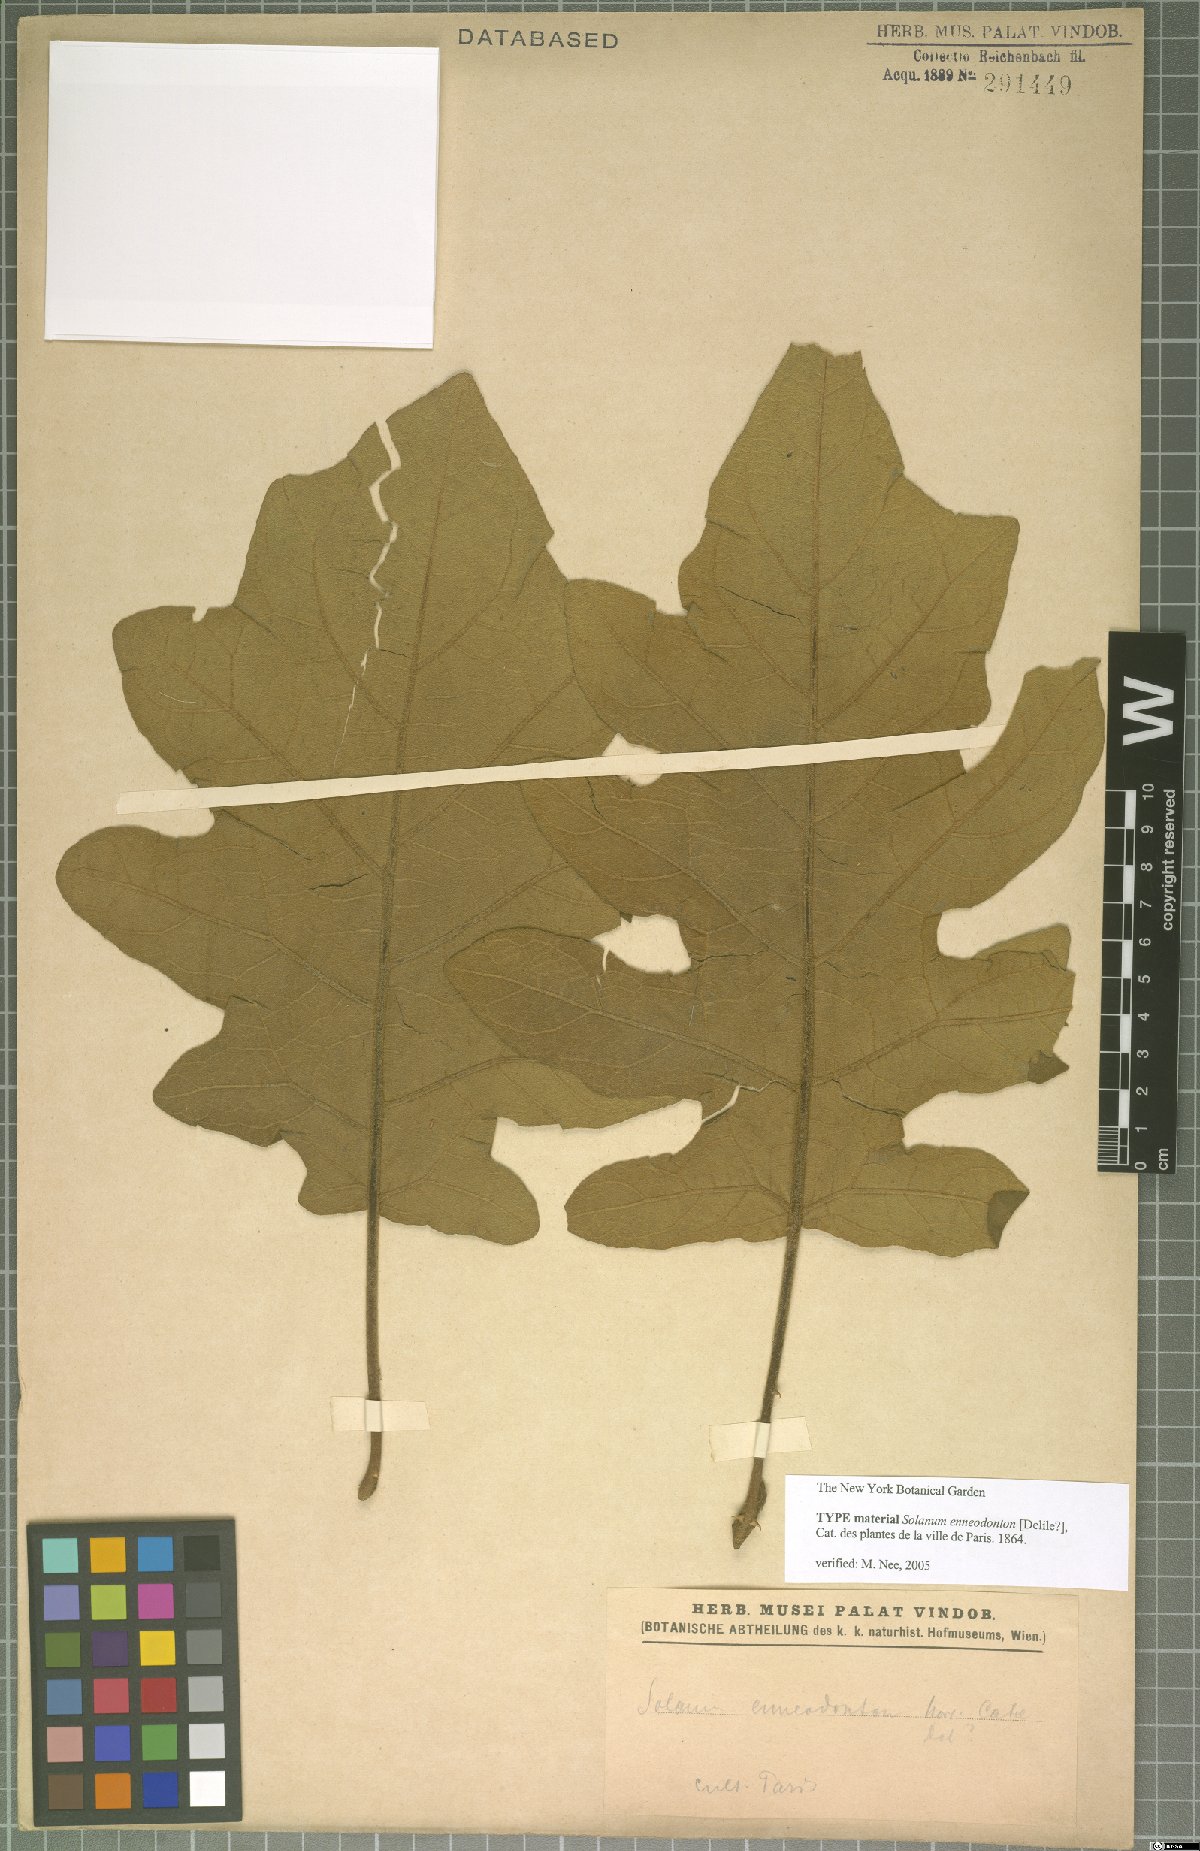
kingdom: Plantae
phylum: Tracheophyta
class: Magnoliopsida
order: Solanales
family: Solanaceae
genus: Solanum
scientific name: Solanum rude-pannum
